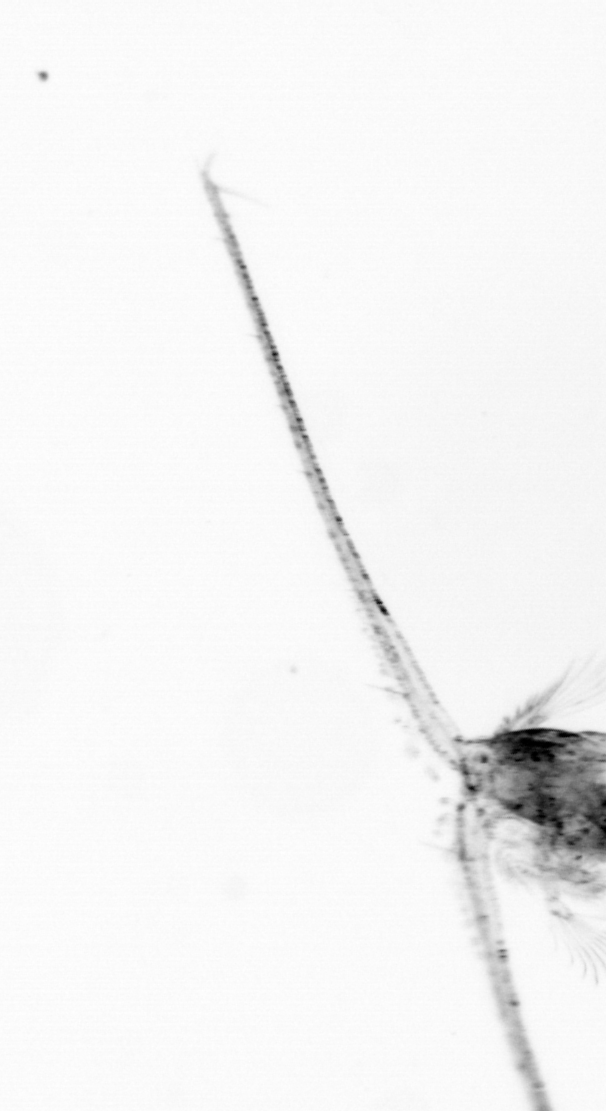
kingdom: Animalia
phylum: Arthropoda
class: Copepoda
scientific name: Copepoda
